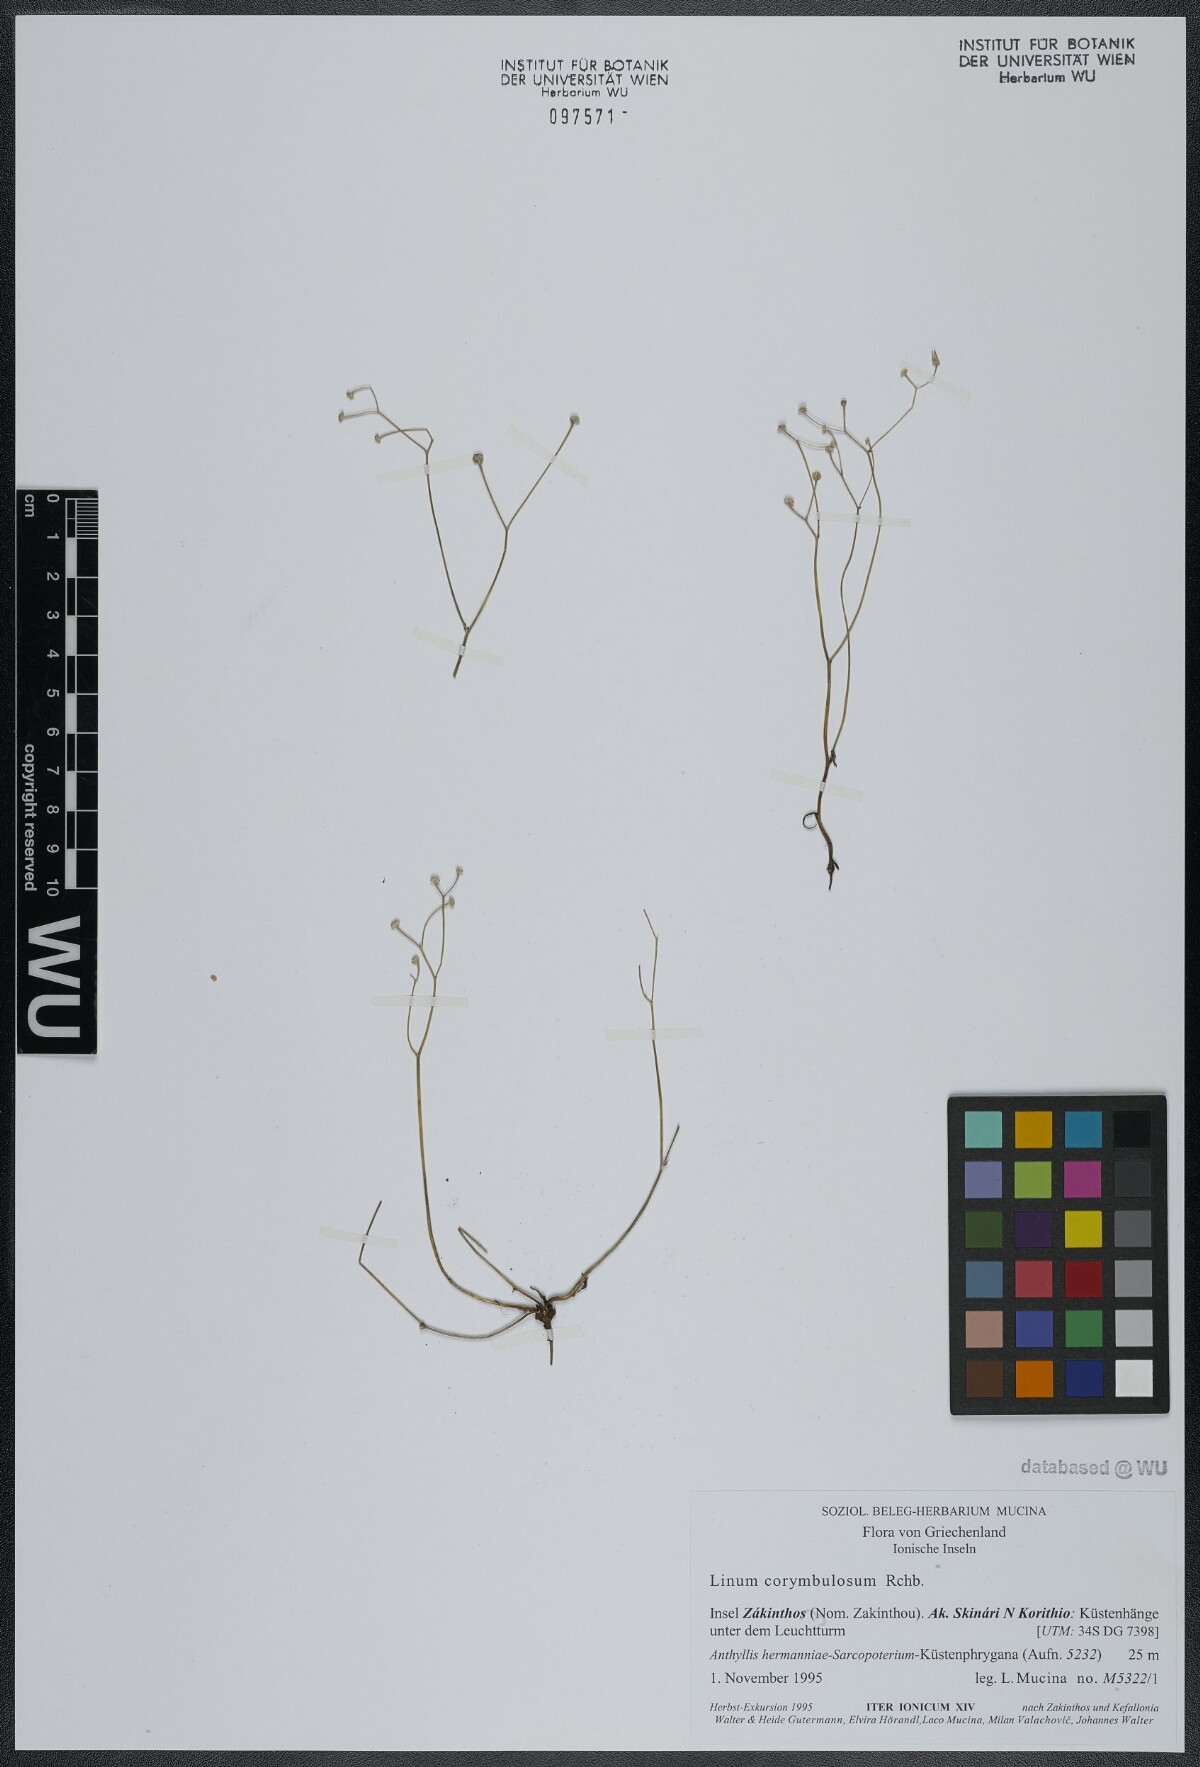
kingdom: Plantae
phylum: Tracheophyta
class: Magnoliopsida
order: Malpighiales
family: Linaceae
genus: Linum
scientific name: Linum corymbulosum
